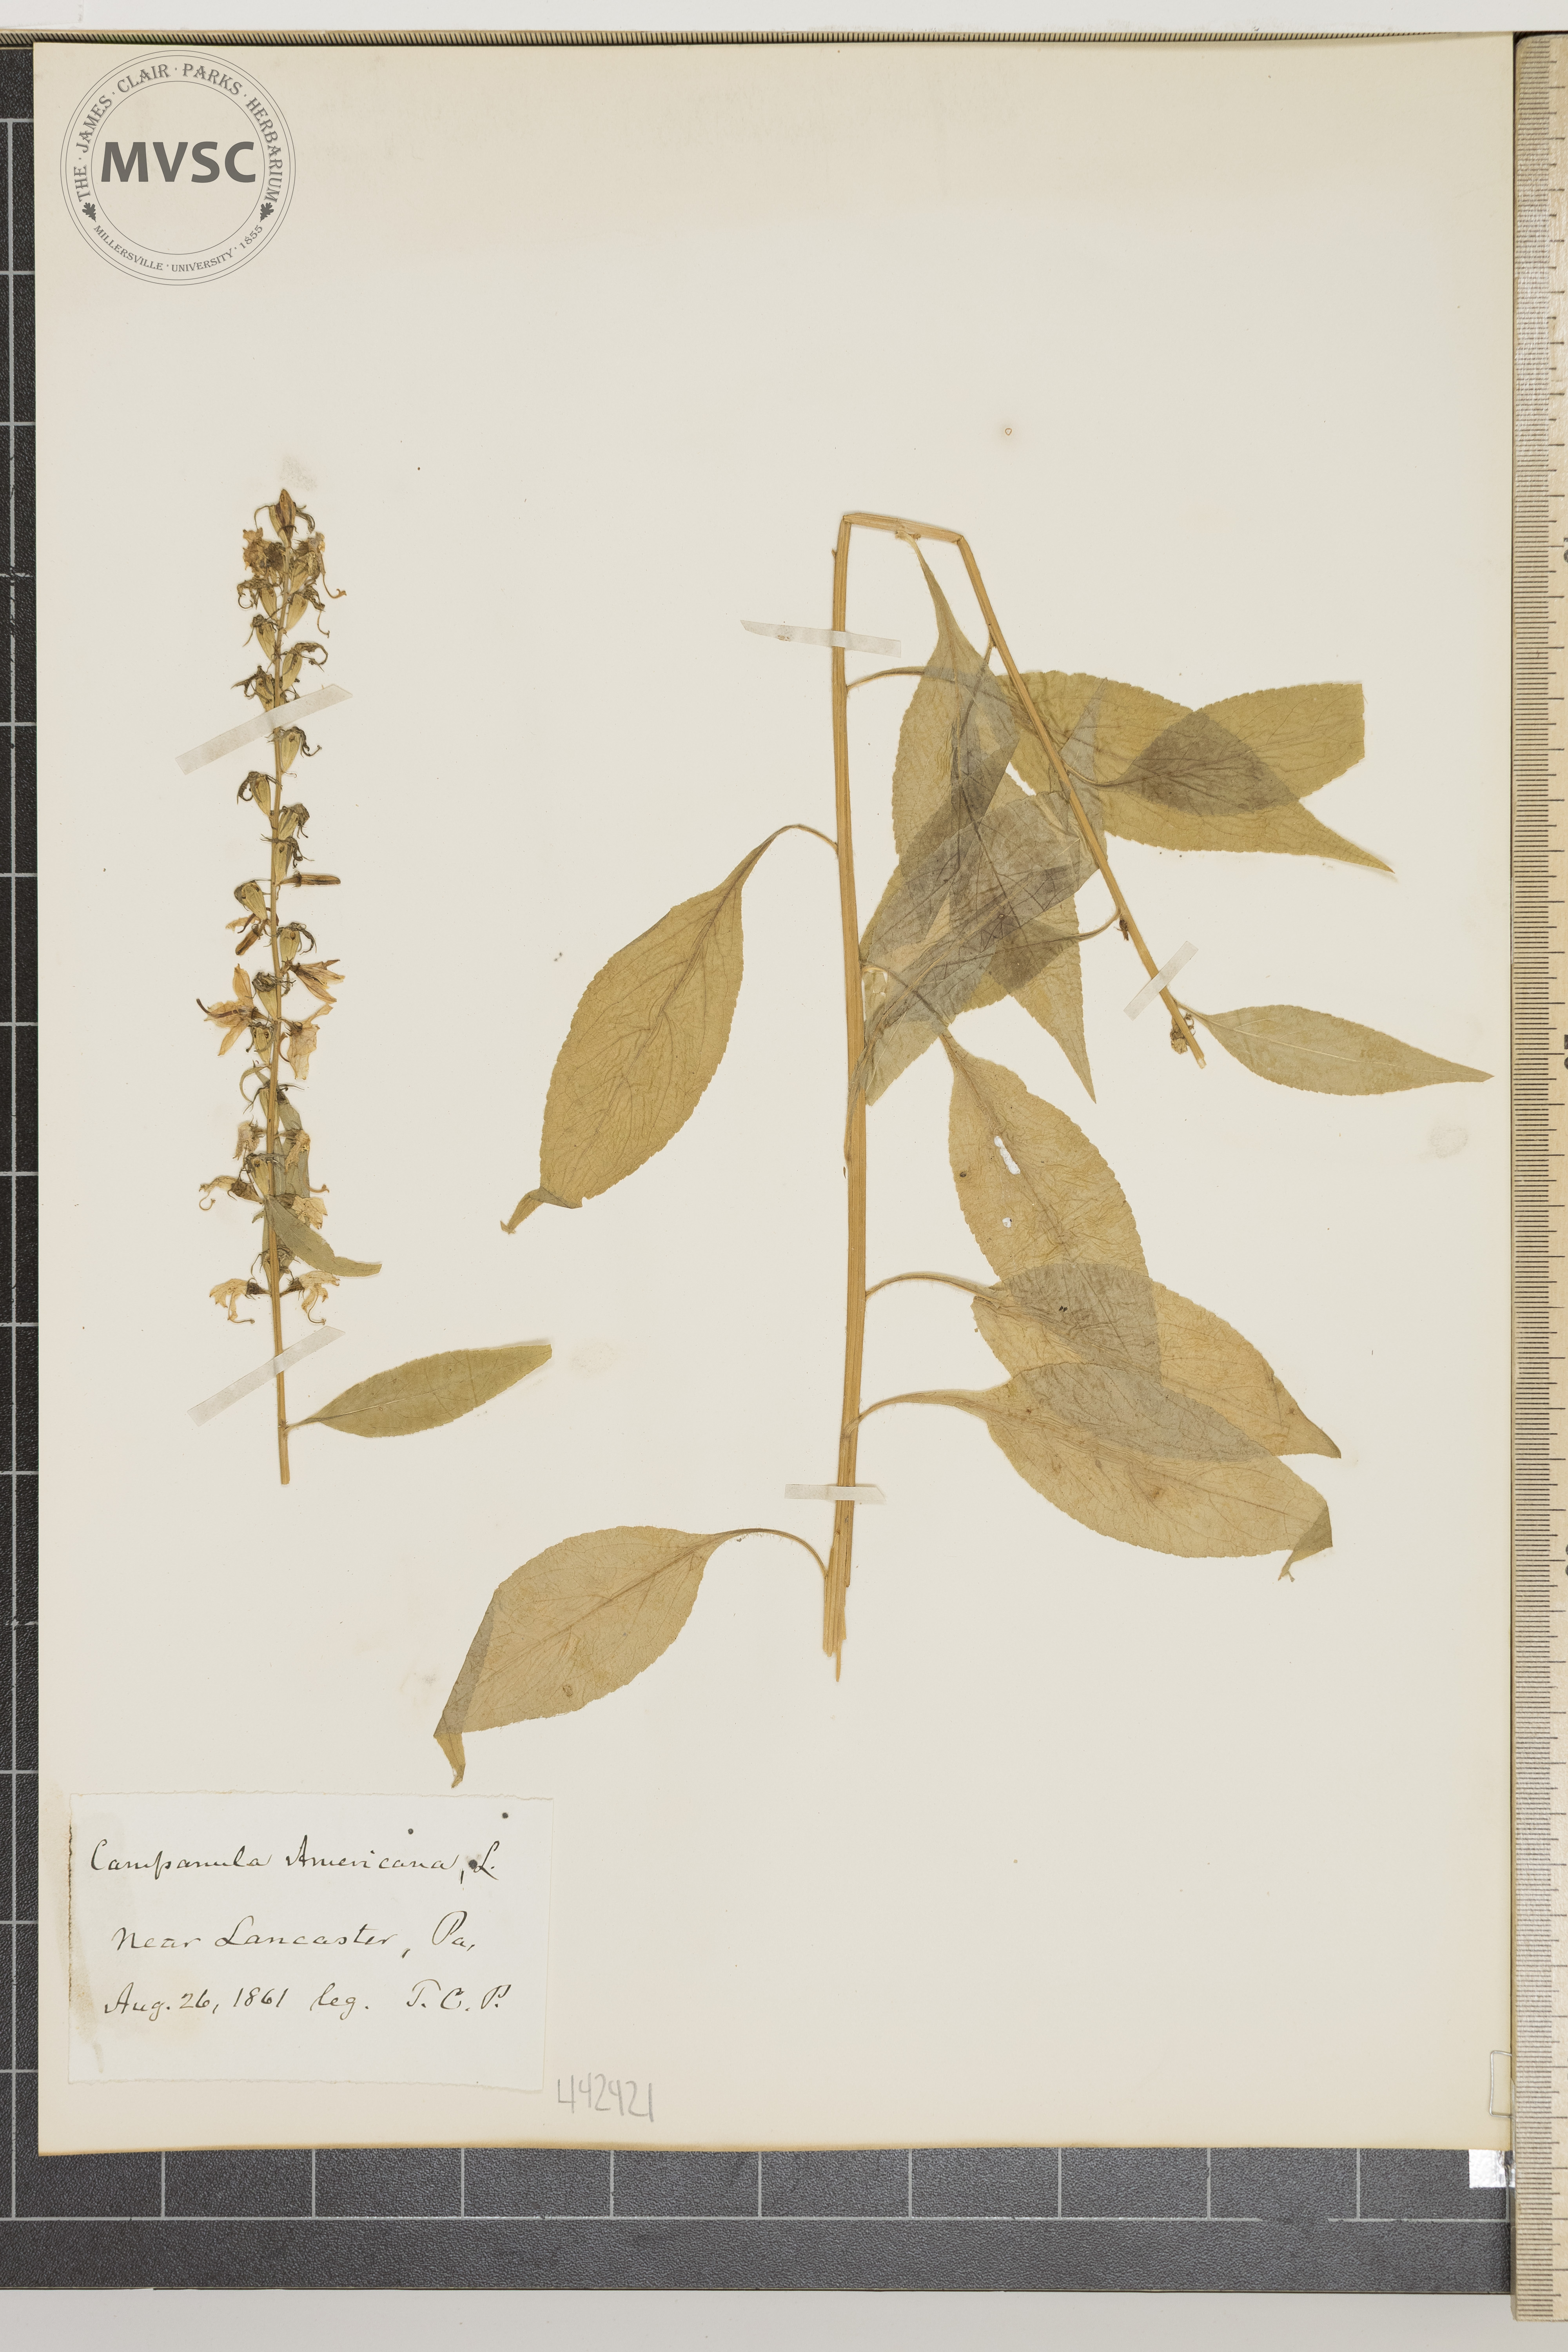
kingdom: Plantae
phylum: Tracheophyta
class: Magnoliopsida
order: Asterales
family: Campanulaceae
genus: Campanulastrum
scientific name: Campanulastrum americanum
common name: American bellflower
